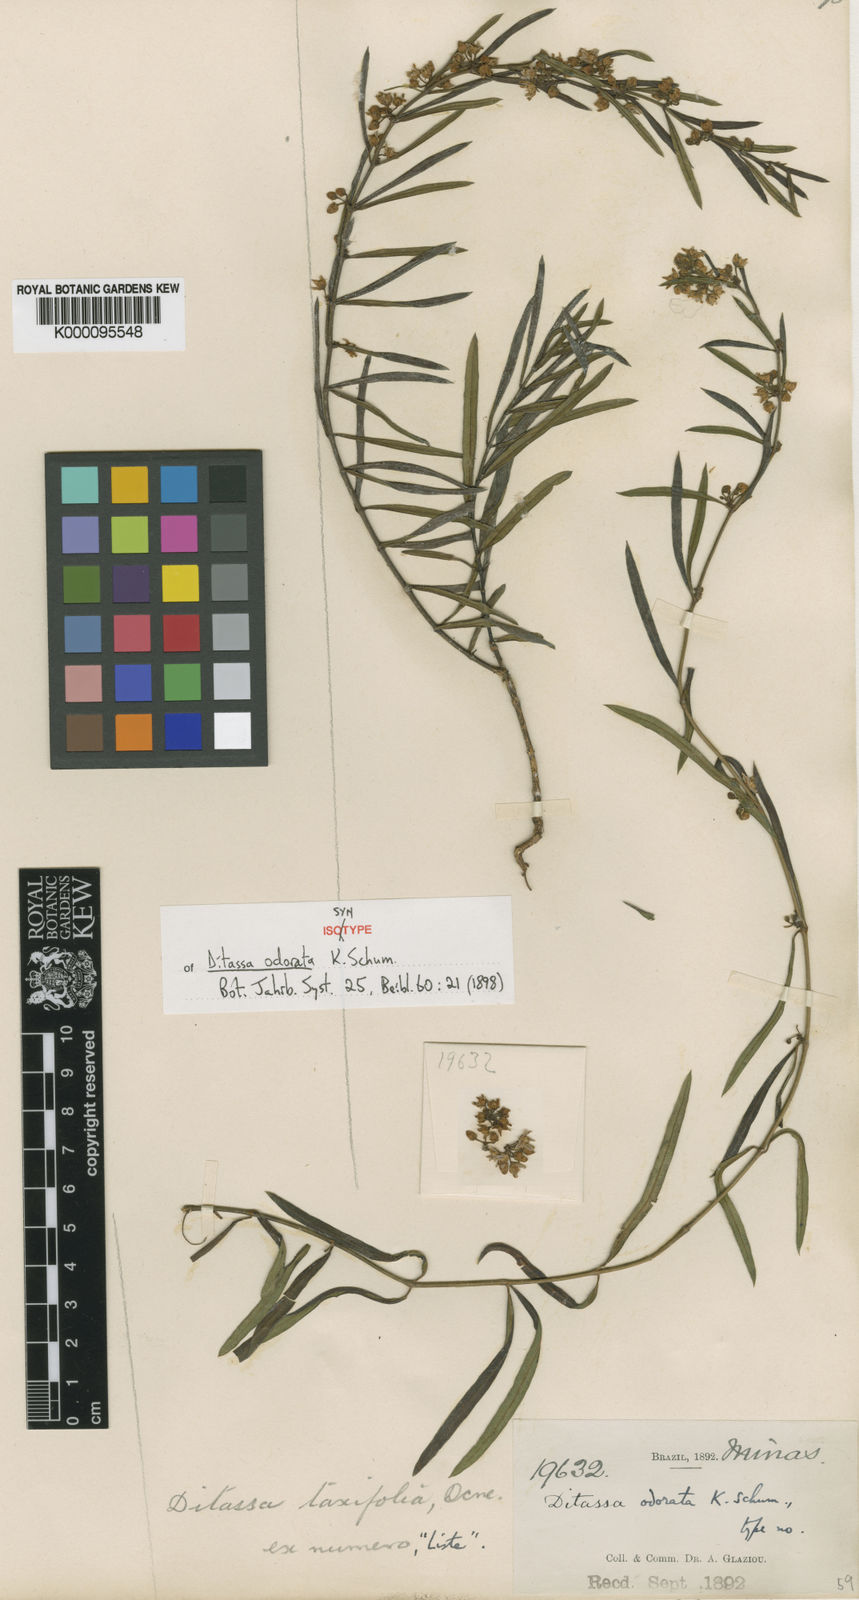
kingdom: Plantae
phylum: Tracheophyta
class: Magnoliopsida
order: Gentianales
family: Apocynaceae
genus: Ditassa
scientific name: Ditassa linearis
